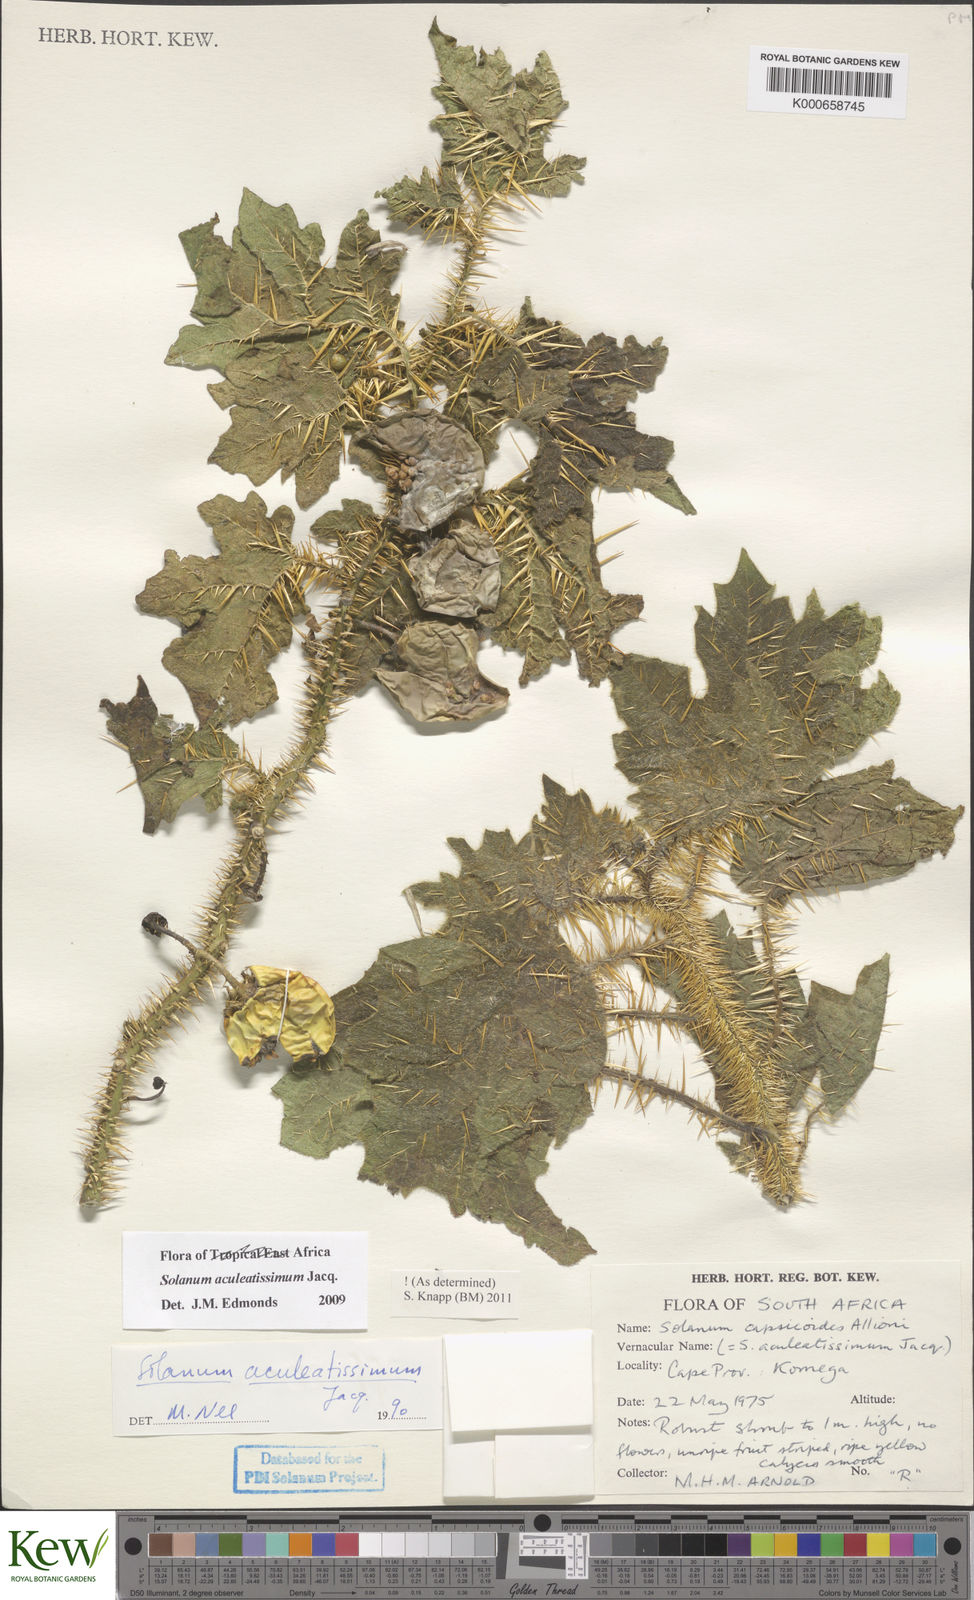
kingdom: Plantae
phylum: Tracheophyta
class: Magnoliopsida
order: Solanales
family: Solanaceae
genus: Solanum
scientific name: Solanum aculeatissimum
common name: Dutch eggplant
